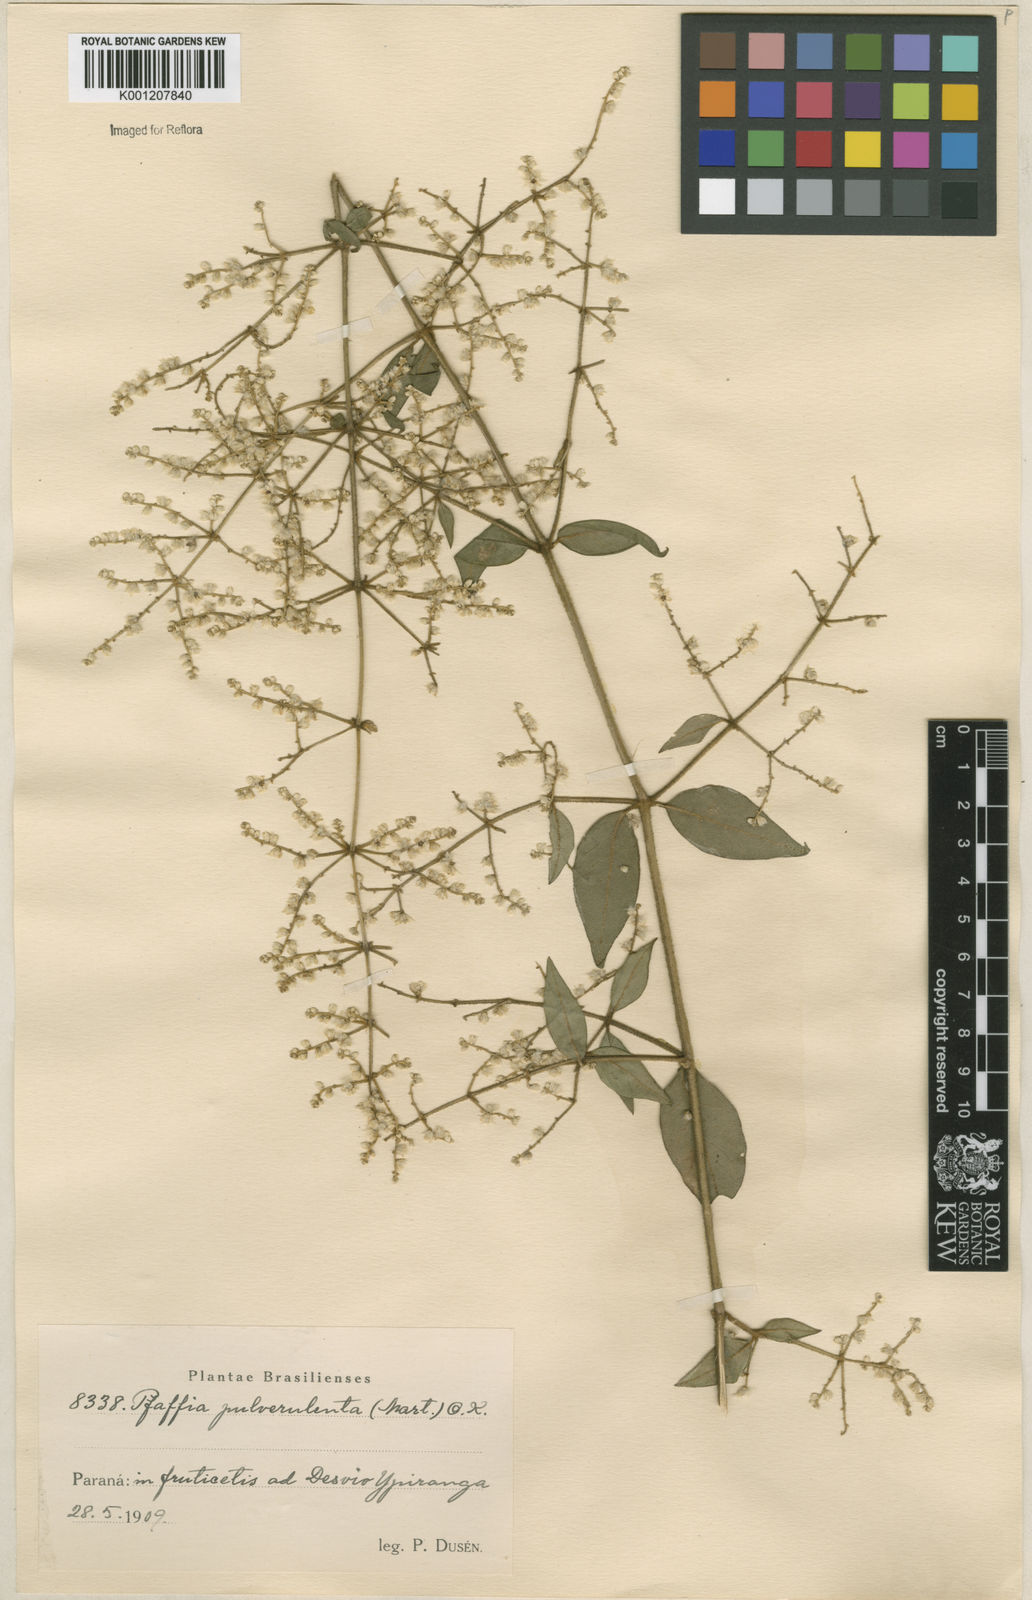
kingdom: Plantae
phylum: Tracheophyta
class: Magnoliopsida
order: Caryophyllales
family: Amaranthaceae
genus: Hebanthe
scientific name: Hebanthe pulverulenta
